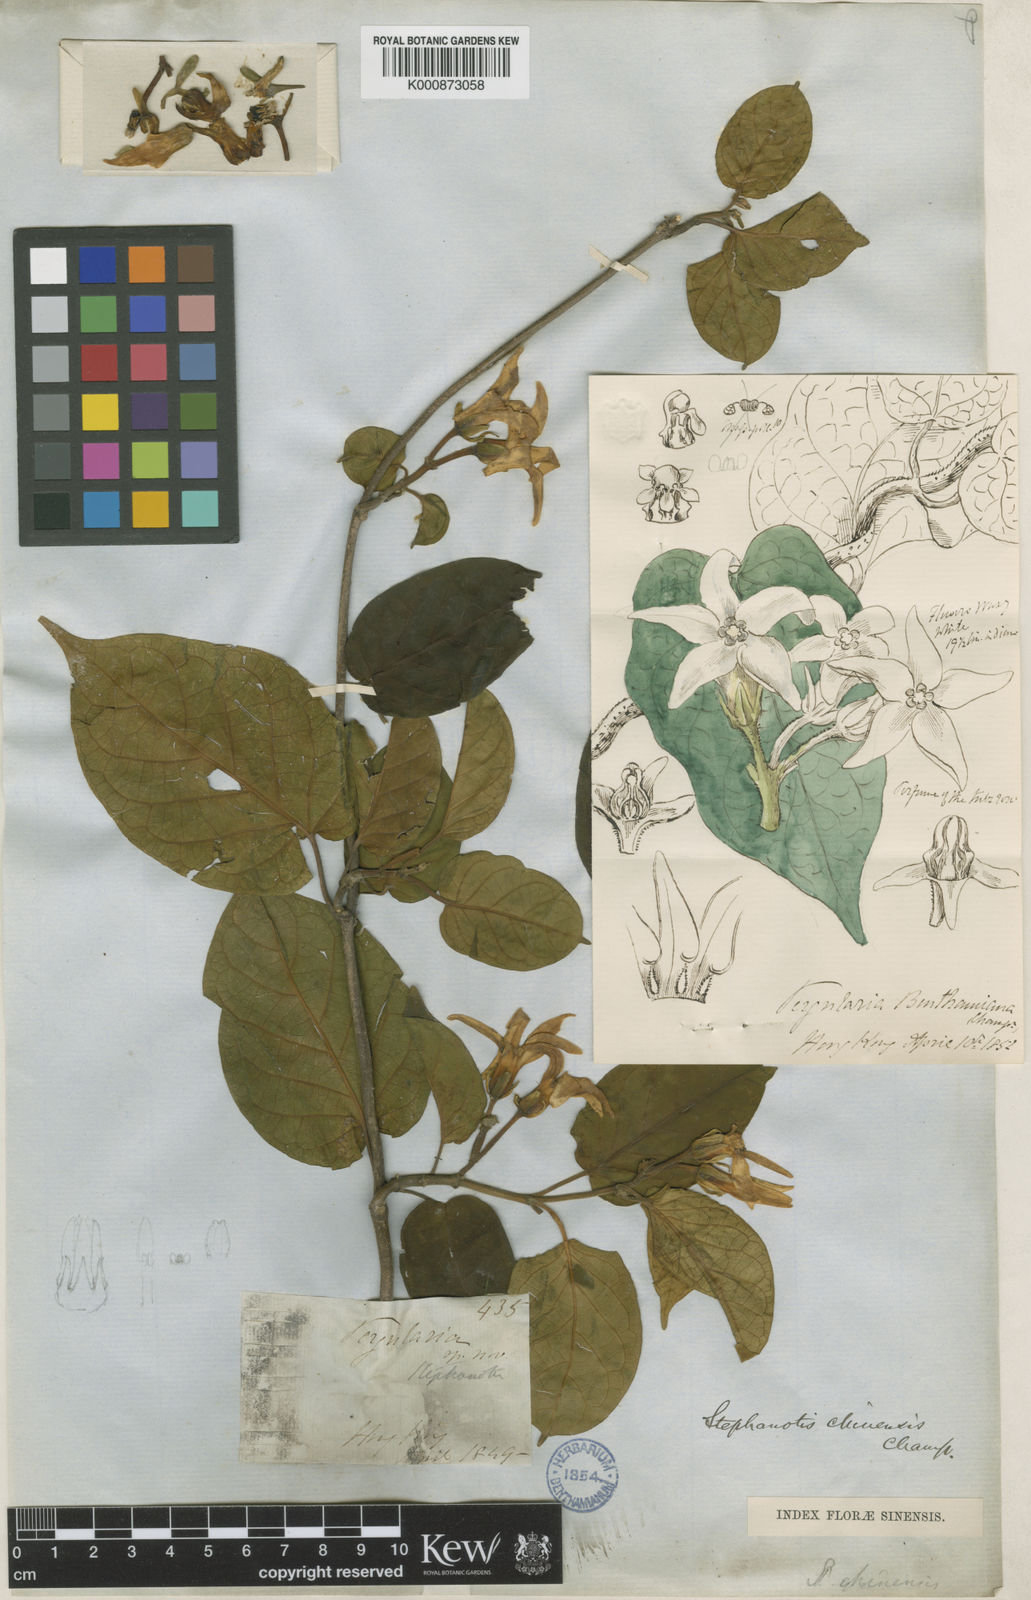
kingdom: Plantae
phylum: Tracheophyta
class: Magnoliopsida
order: Gentianales
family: Apocynaceae
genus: Jasminanthes
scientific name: Jasminanthes mucronata
